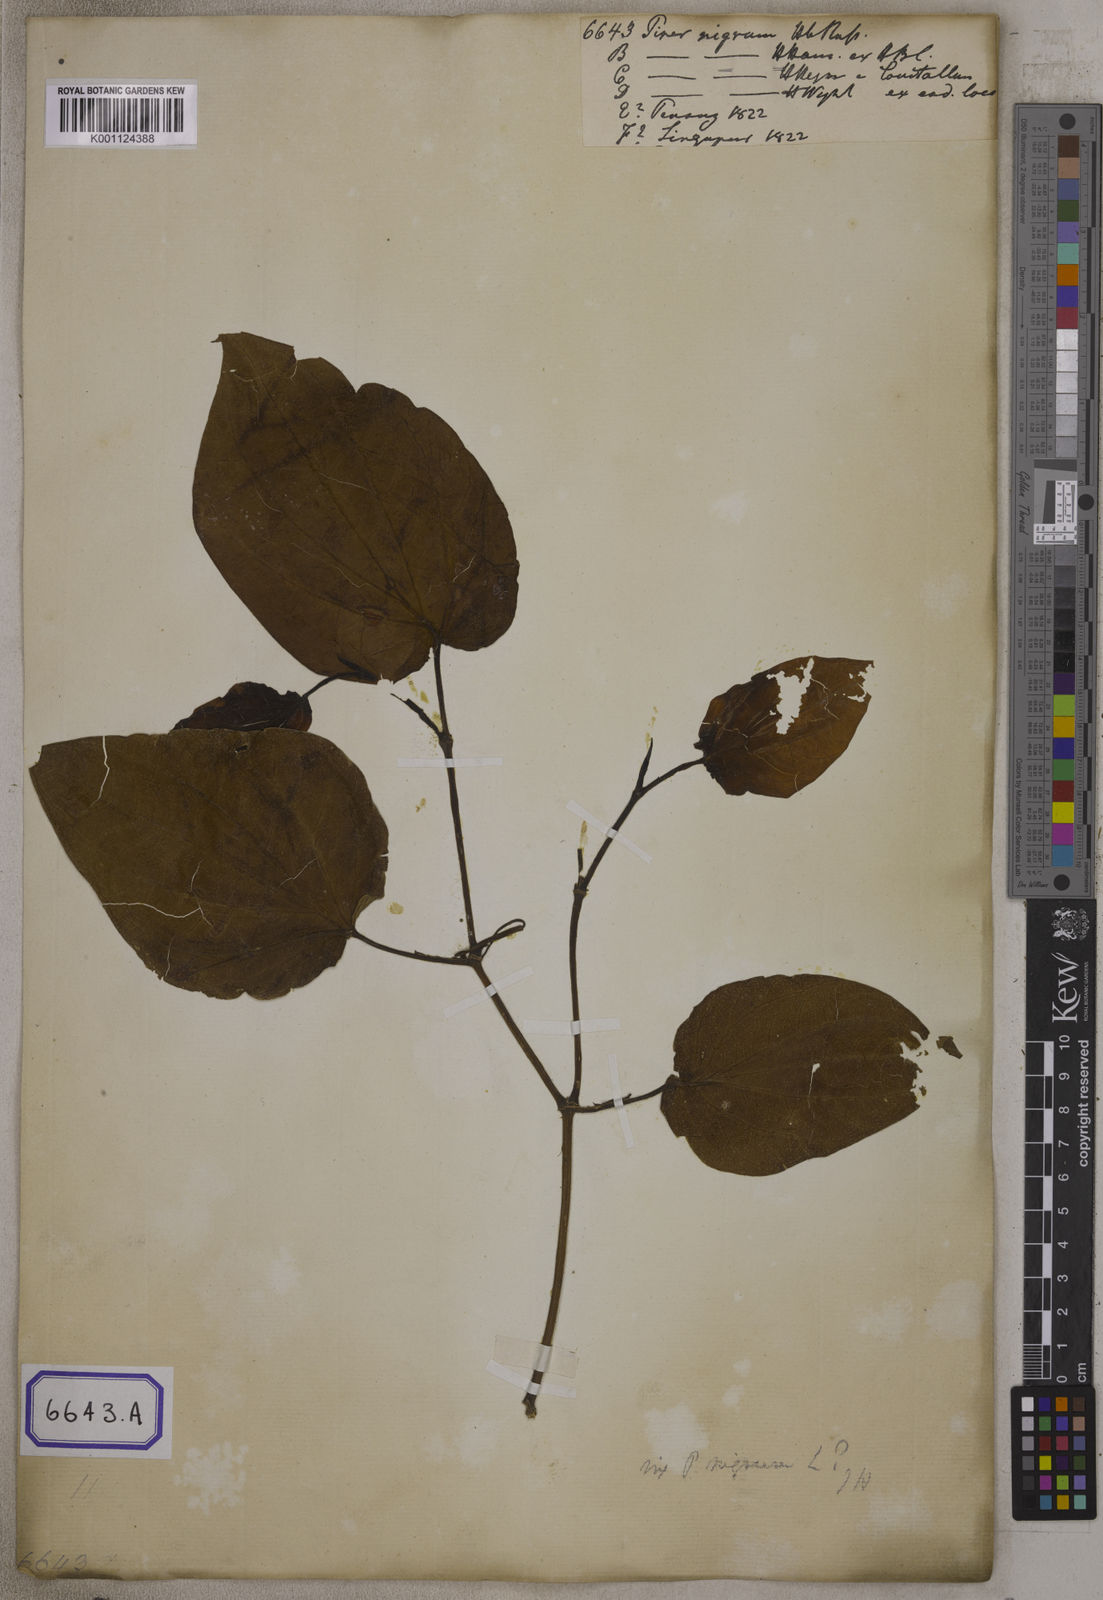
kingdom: Plantae
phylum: Tracheophyta
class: Magnoliopsida
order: Piperales
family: Piperaceae
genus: Piper
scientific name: Piper
